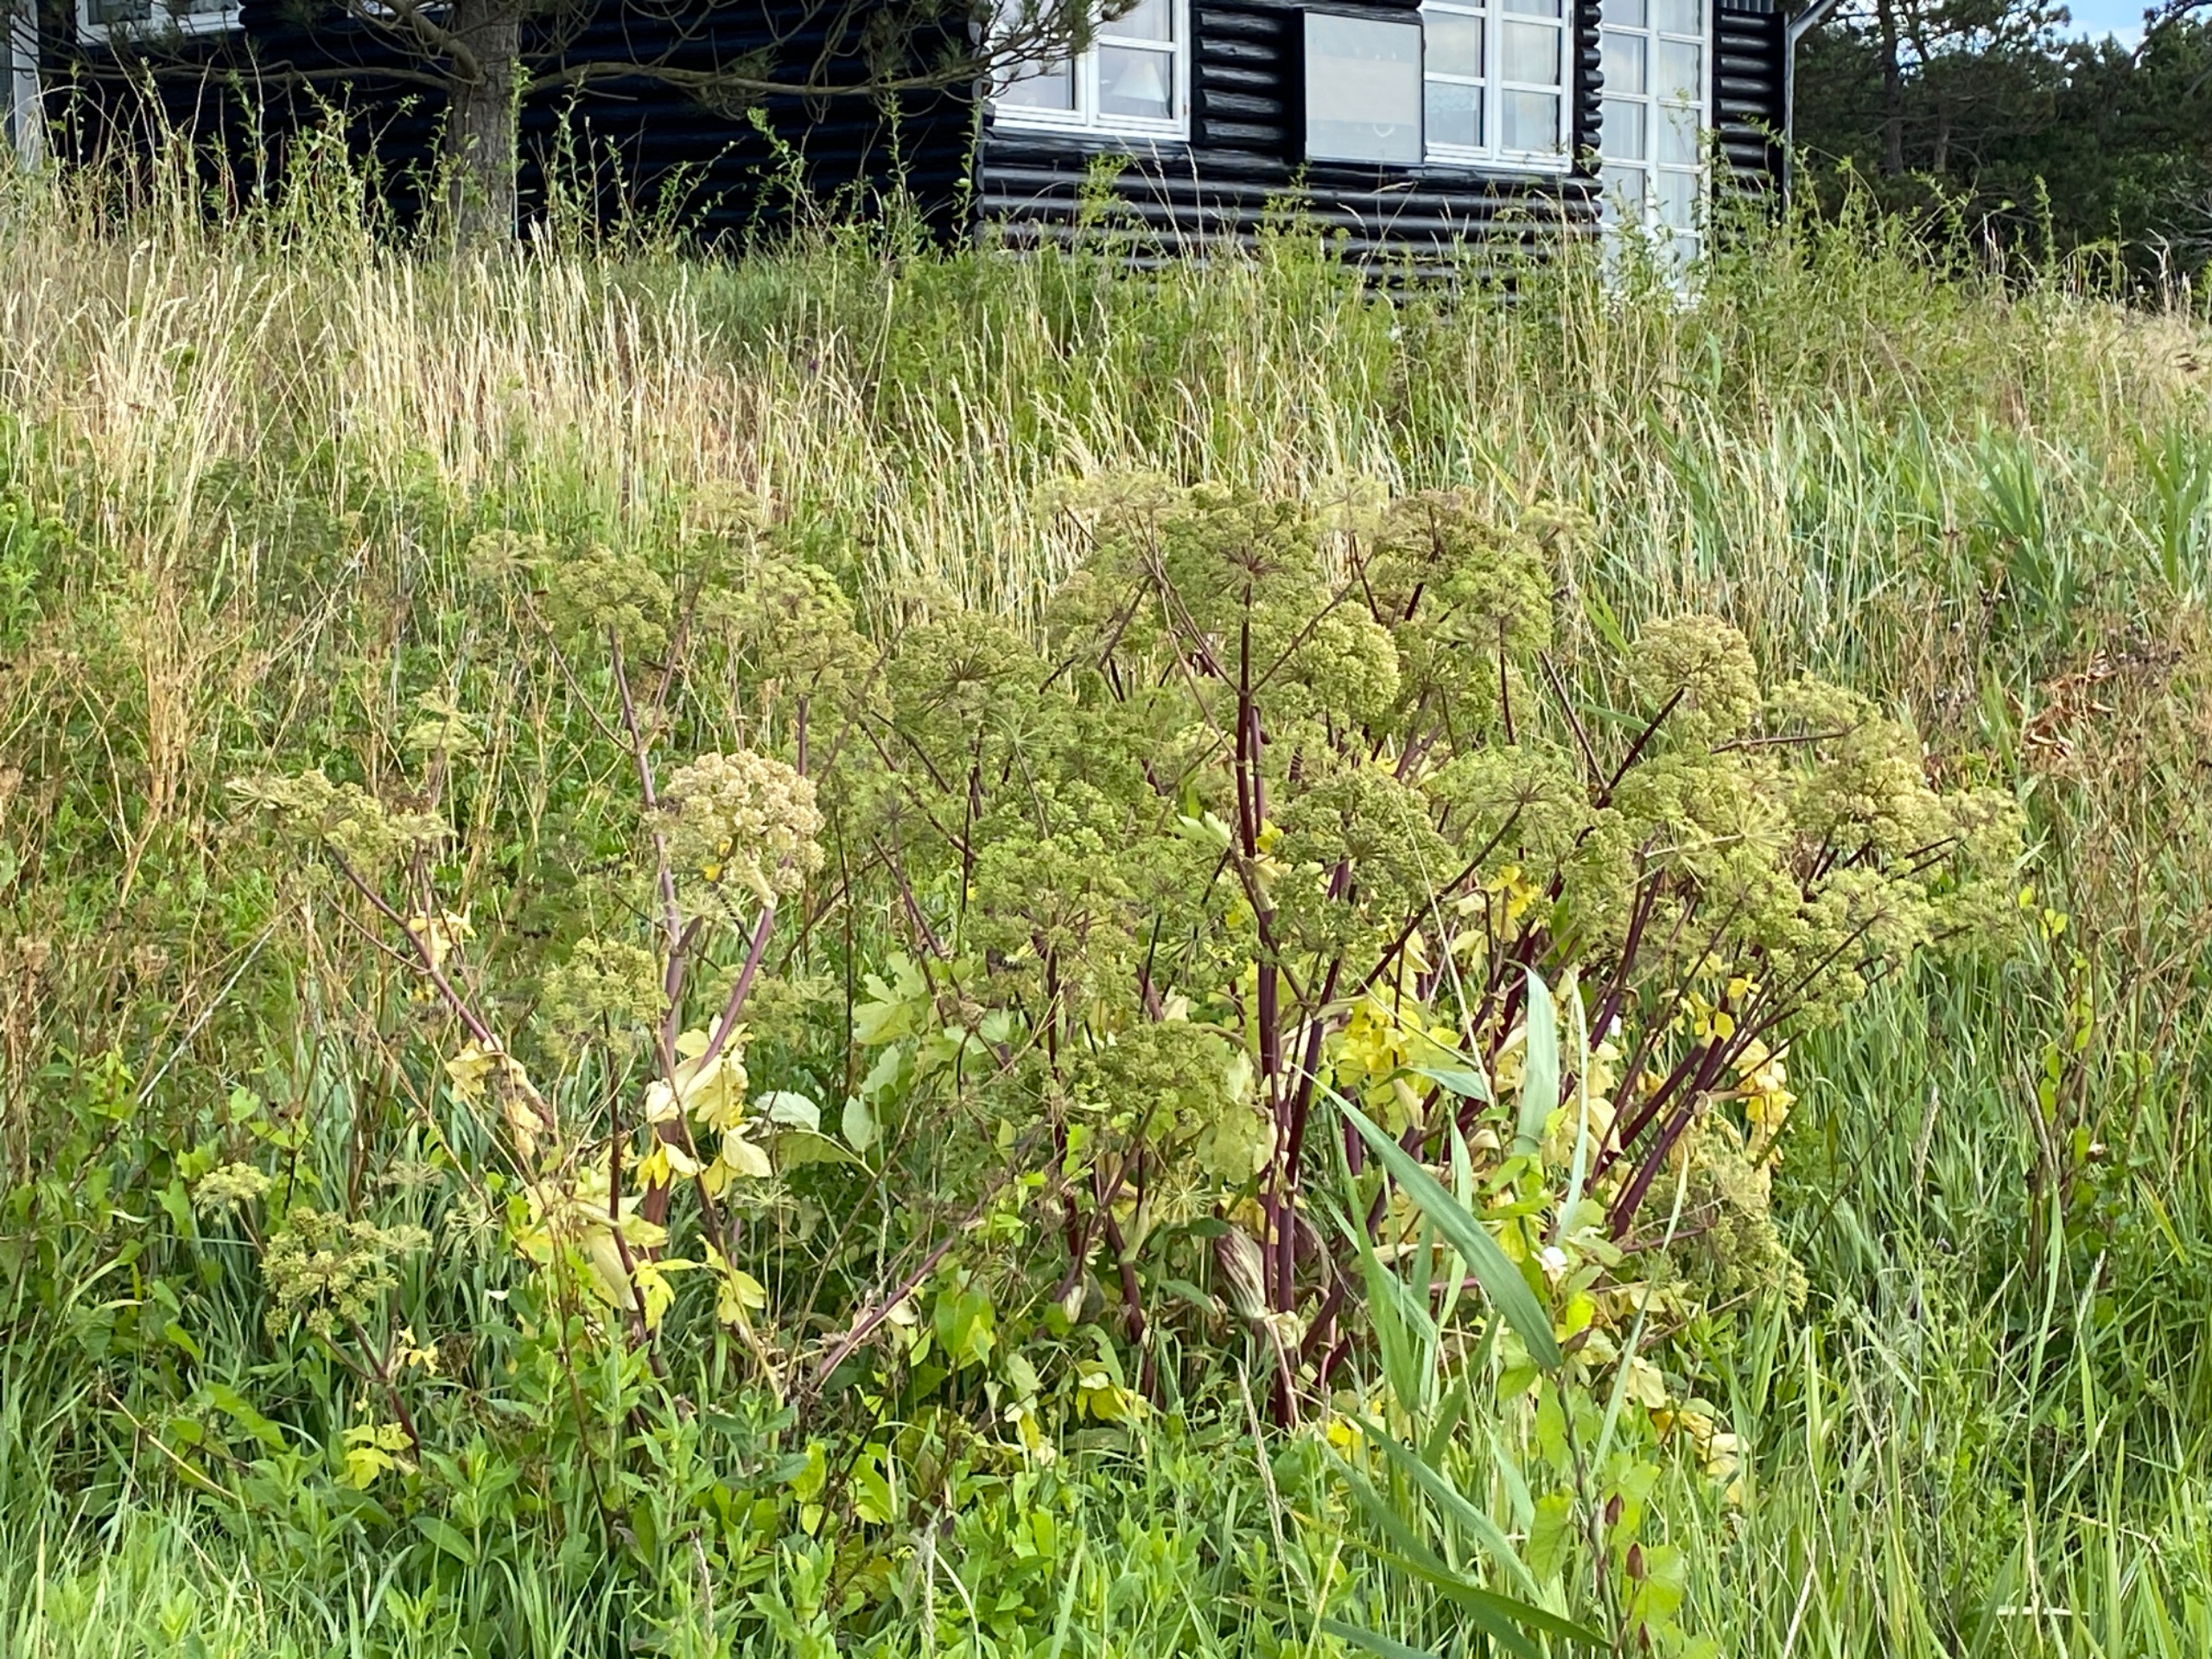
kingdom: Plantae
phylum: Tracheophyta
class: Magnoliopsida
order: Apiales
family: Apiaceae
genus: Angelica
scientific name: Angelica archangelica
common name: Kvan
